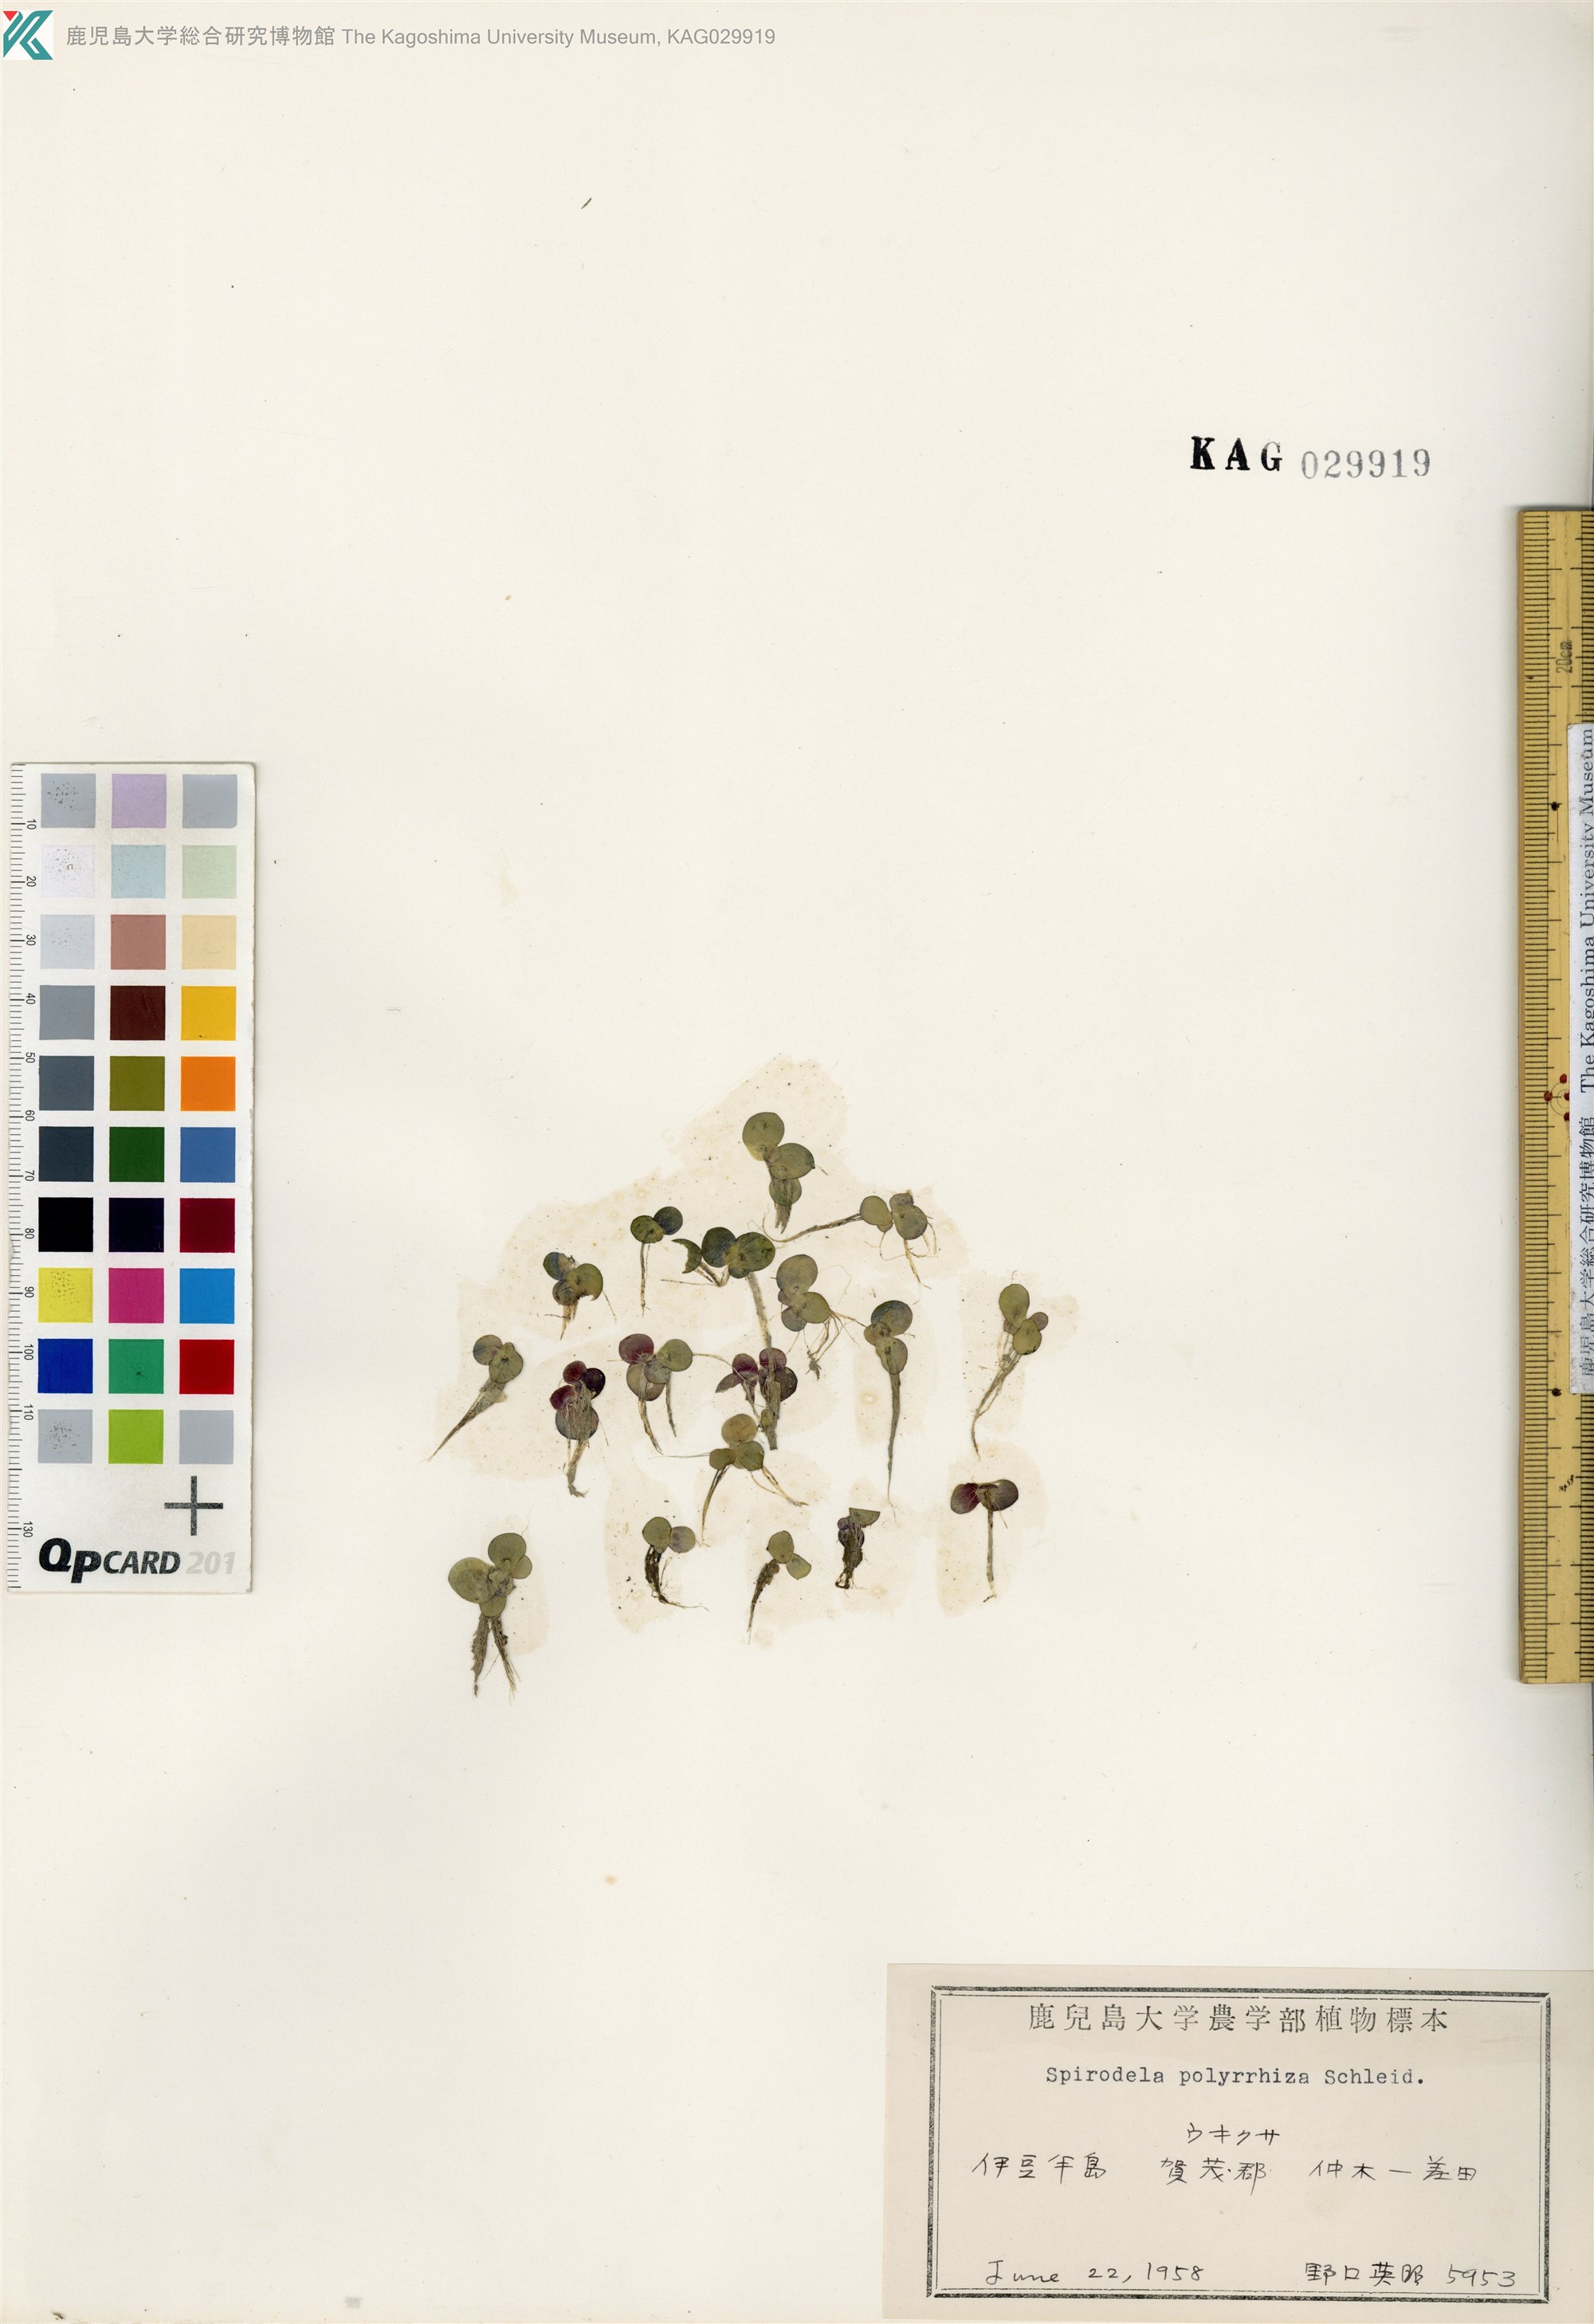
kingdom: Plantae
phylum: Tracheophyta
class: Liliopsida
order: Alismatales
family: Araceae
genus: Spirodela
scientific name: Spirodela polyrhiza
